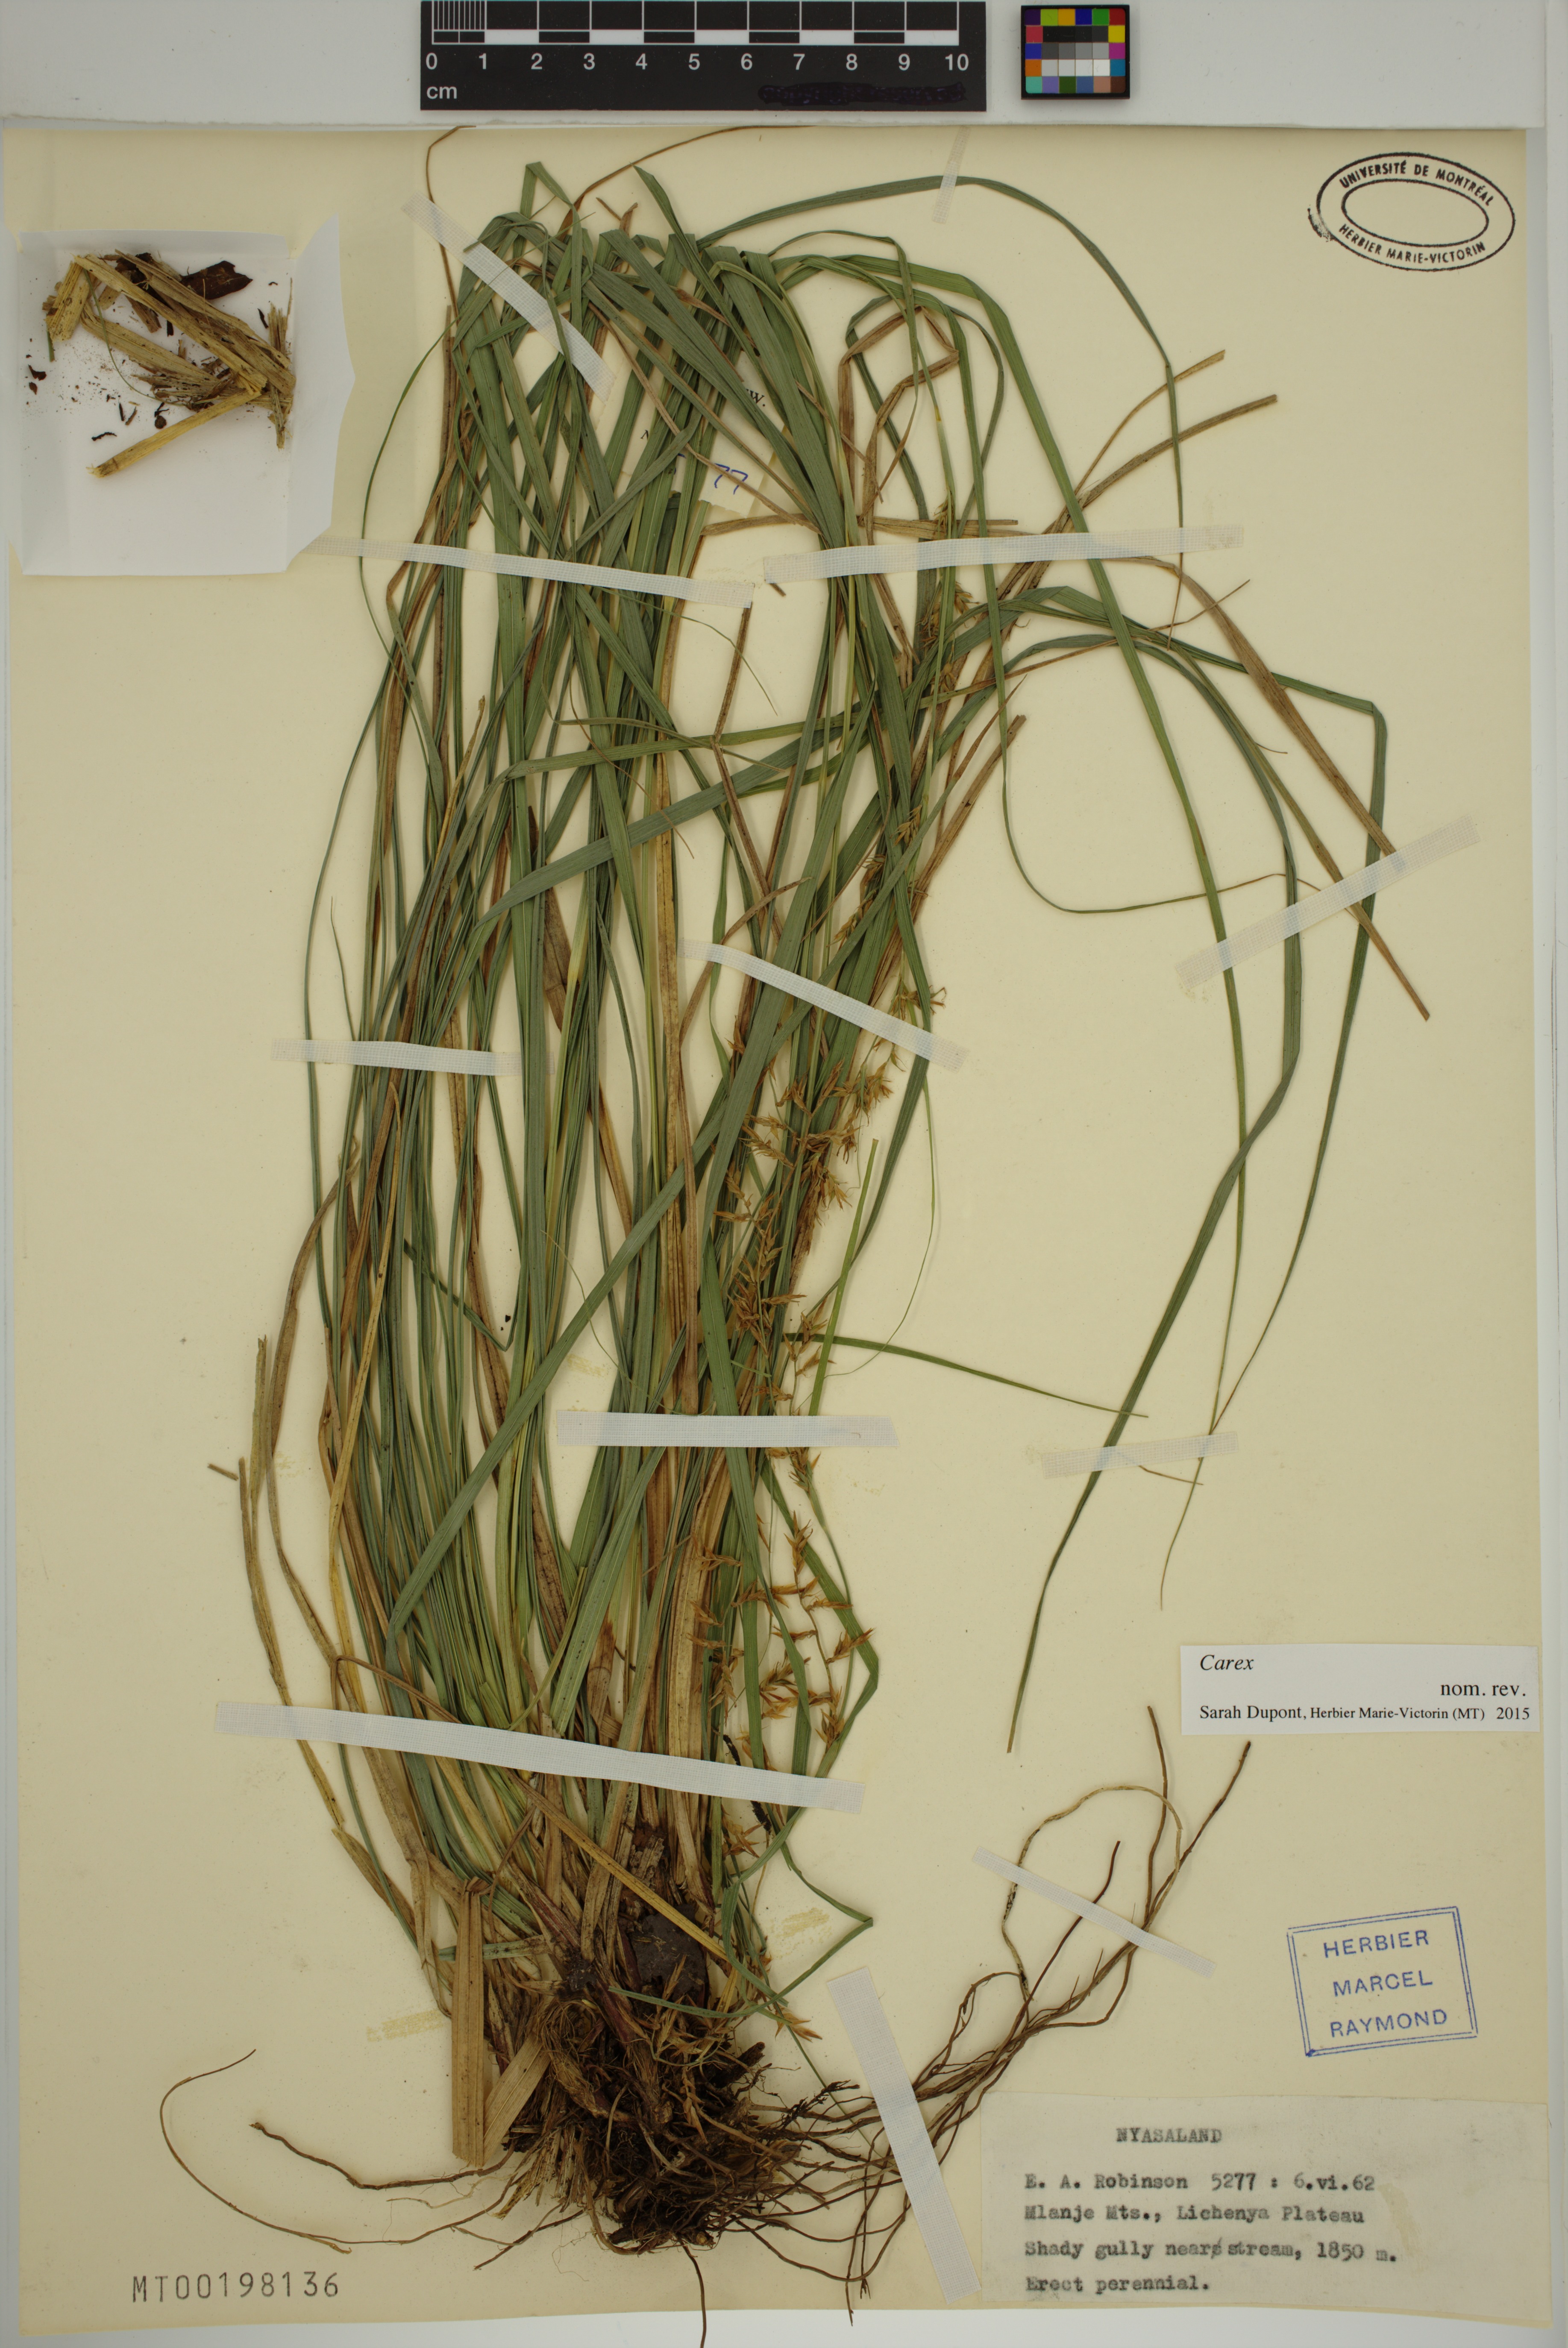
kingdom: Plantae
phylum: Tracheophyta
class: Liliopsida
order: Poales
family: Cyperaceae
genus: Carex
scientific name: Carex
